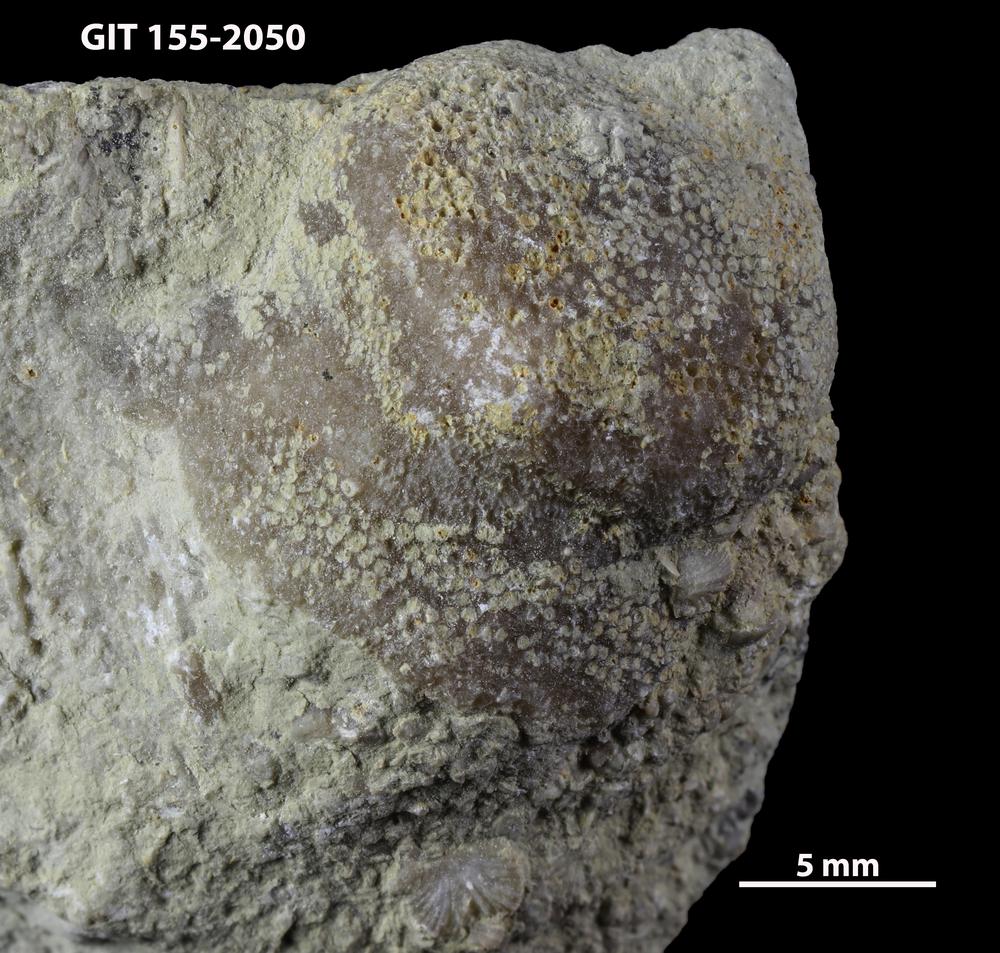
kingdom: Animalia
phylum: Bryozoa
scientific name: Bryozoa
